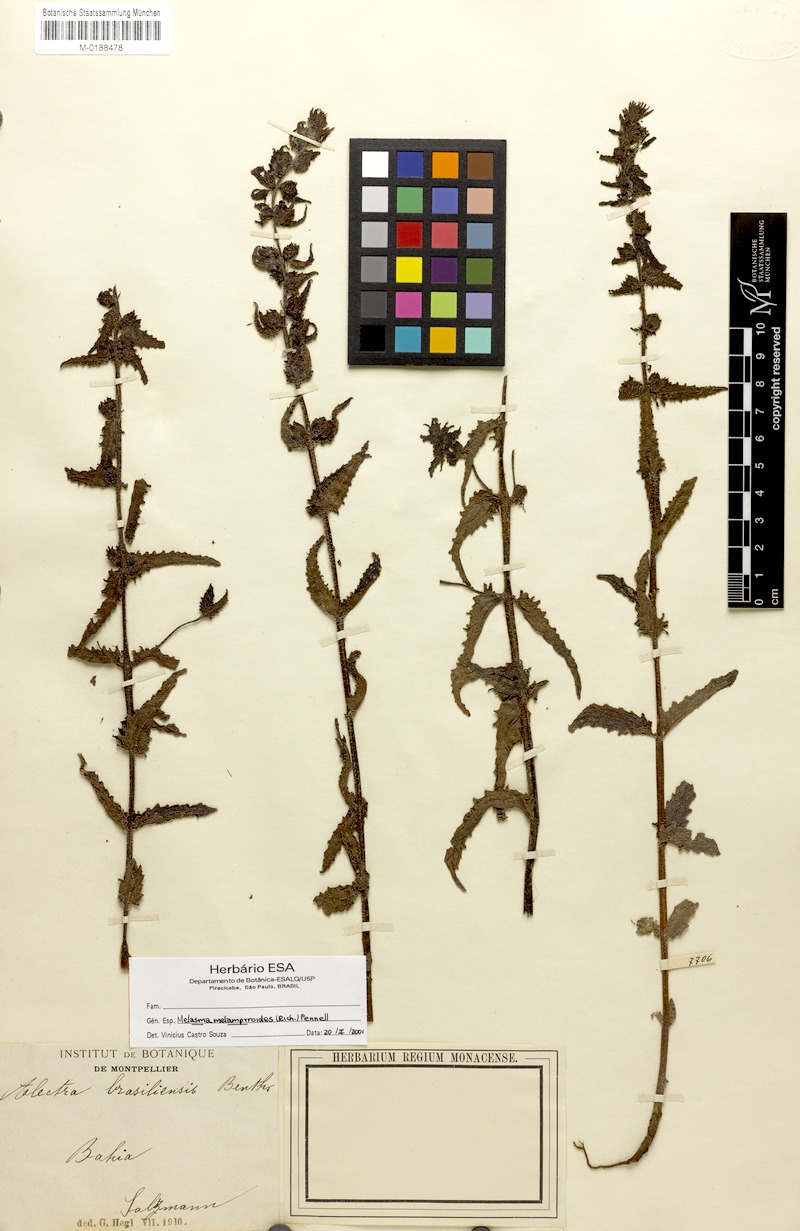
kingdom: Plantae
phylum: Tracheophyta
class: Magnoliopsida
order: Lamiales
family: Orobanchaceae
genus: Melasma
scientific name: Melasma melampyroides
